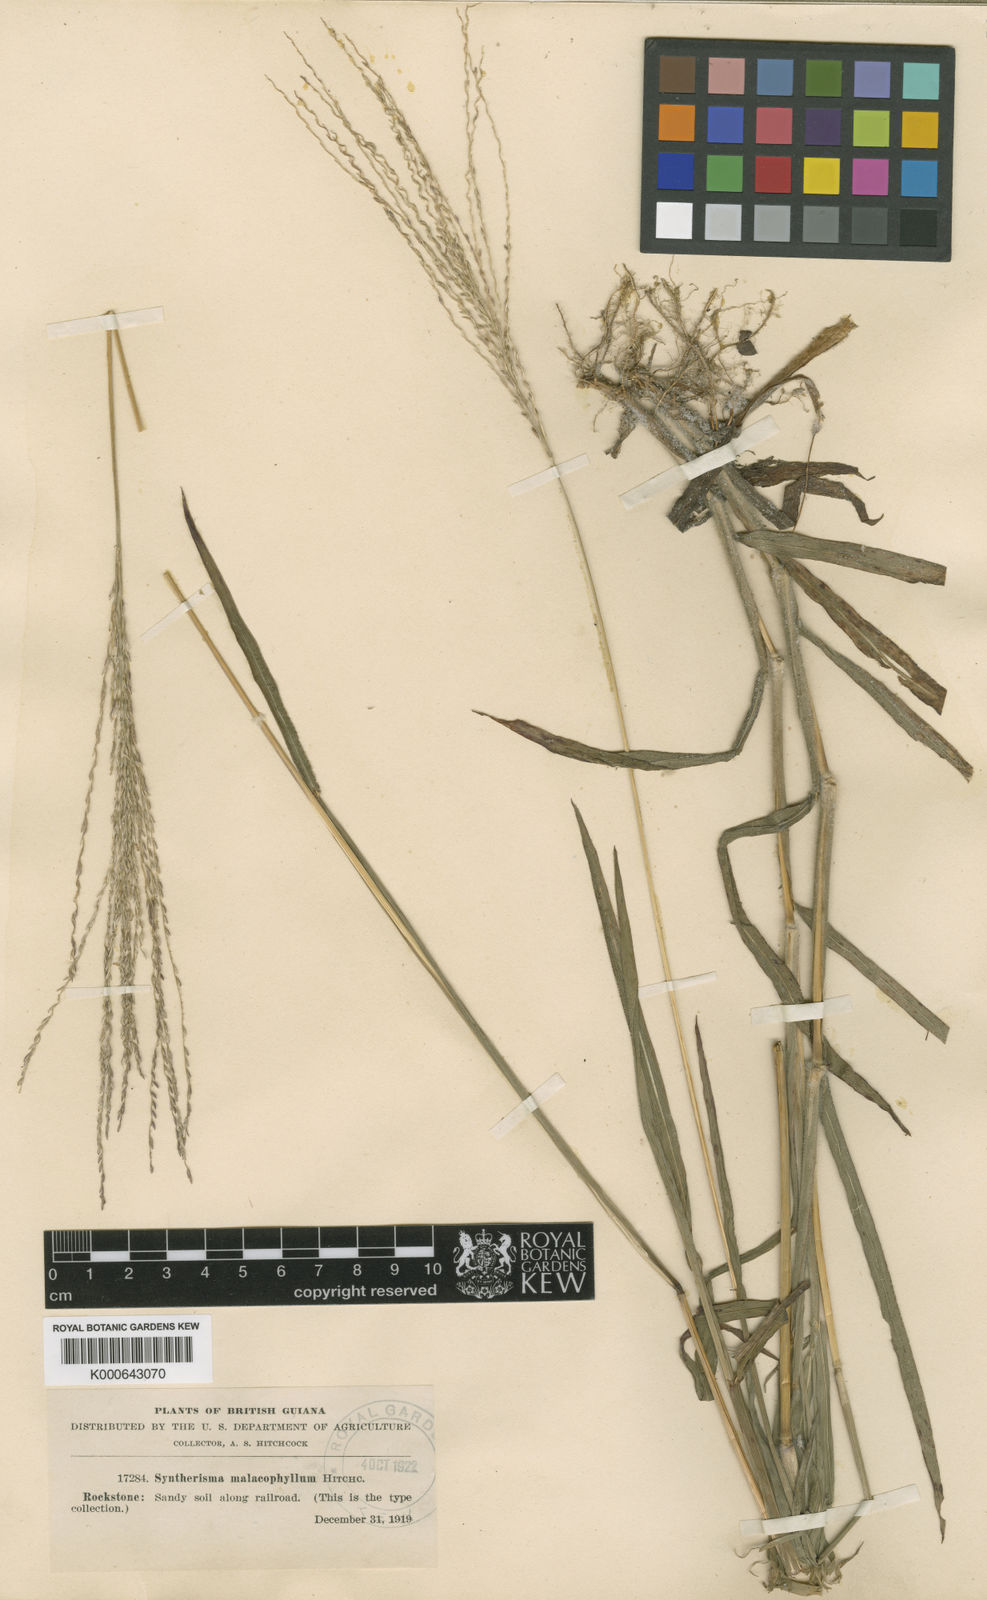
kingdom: Plantae
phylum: Tracheophyta
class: Liliopsida
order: Poales
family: Poaceae
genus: Digitaria
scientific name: Digitaria cuyabensis
